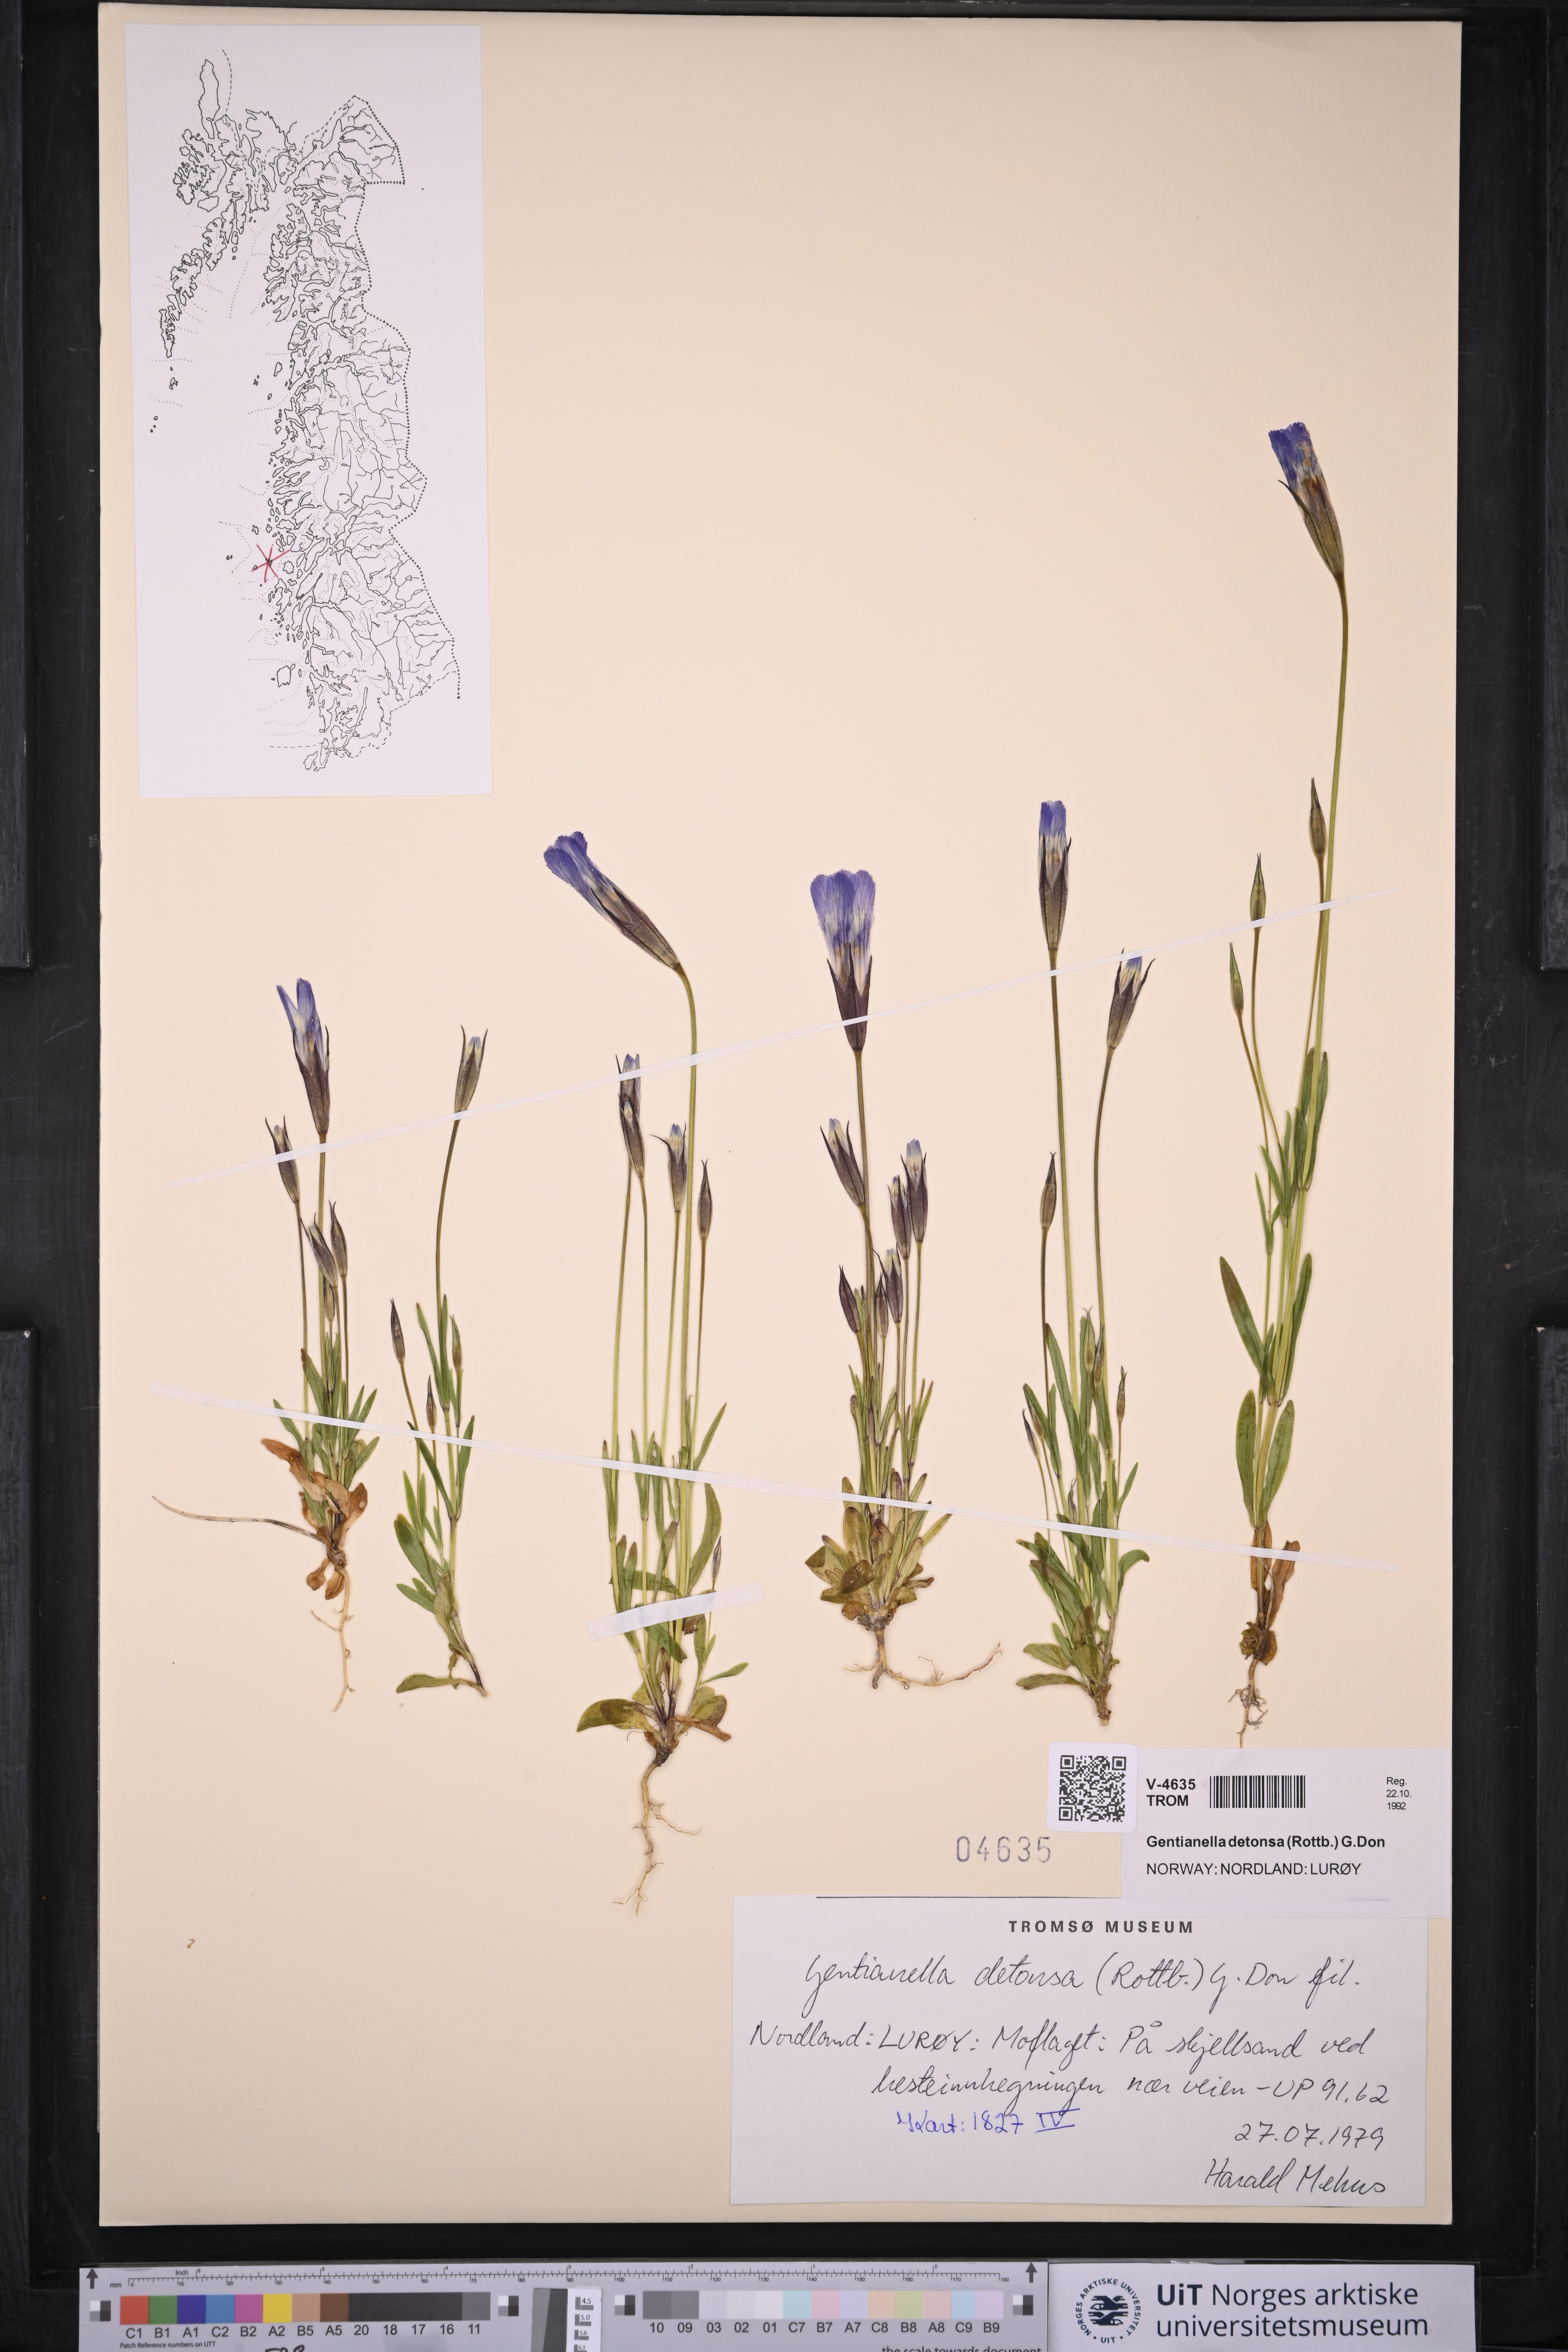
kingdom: Plantae
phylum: Tracheophyta
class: Magnoliopsida
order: Gentianales
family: Gentianaceae
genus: Gentianopsis
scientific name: Gentianopsis detonsa
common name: Fringed-gentian
